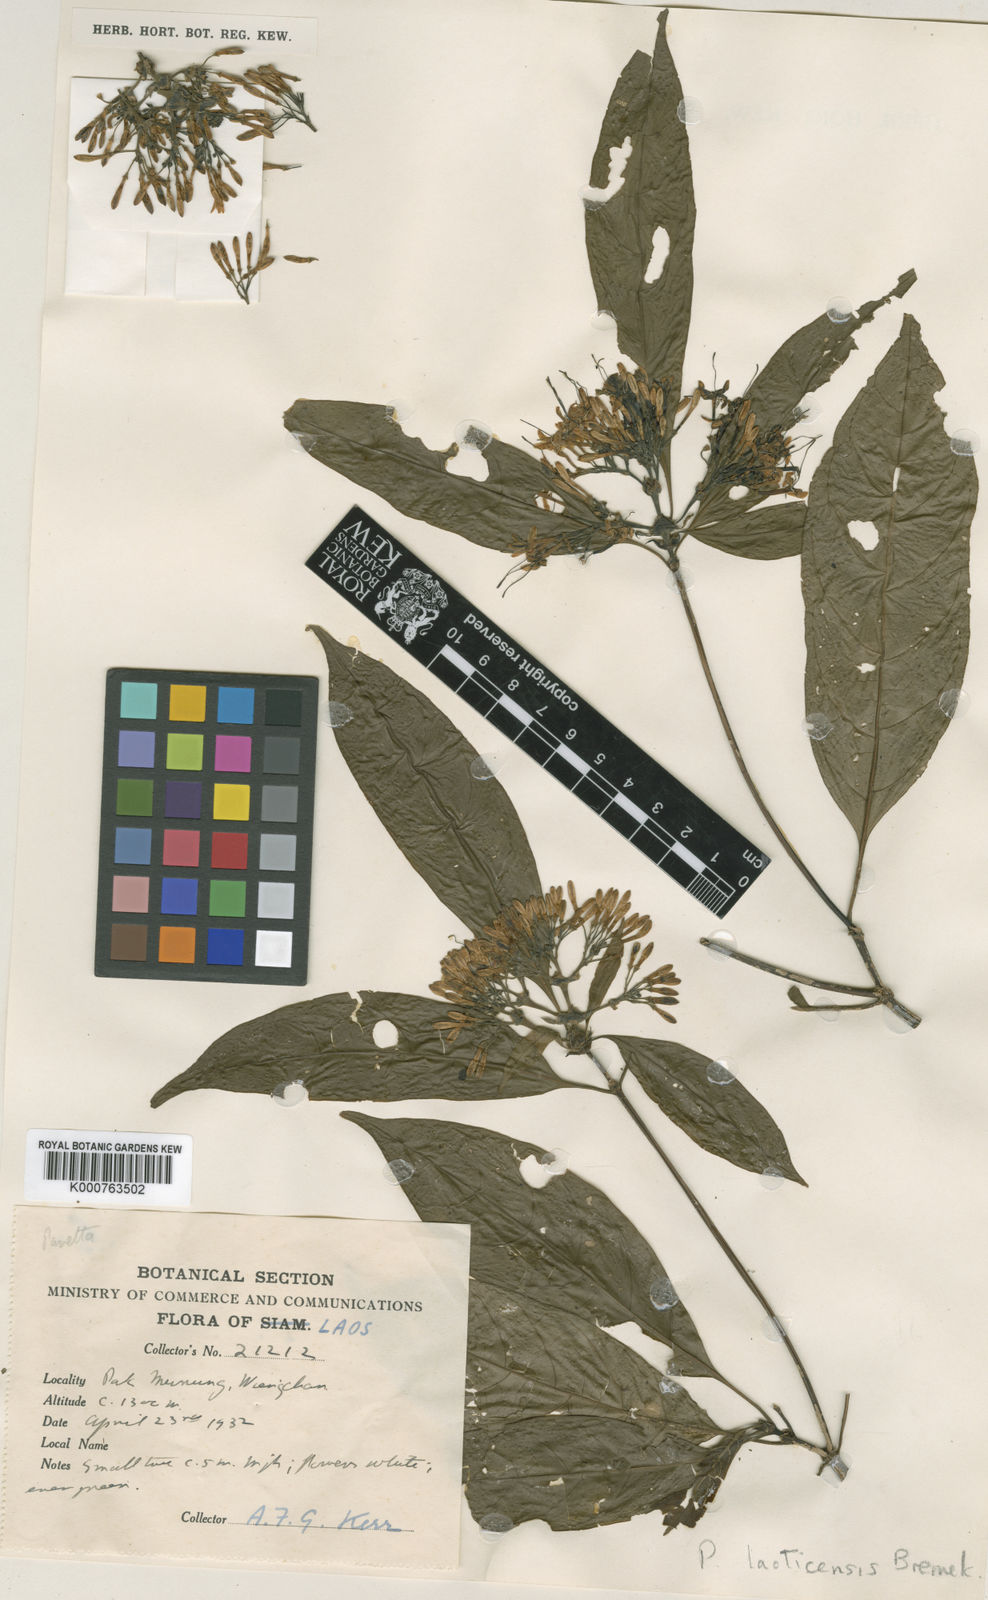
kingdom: Plantae
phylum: Tracheophyta
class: Magnoliopsida
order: Gentianales
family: Rubiaceae
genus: Pavetta
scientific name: Pavetta aspera
